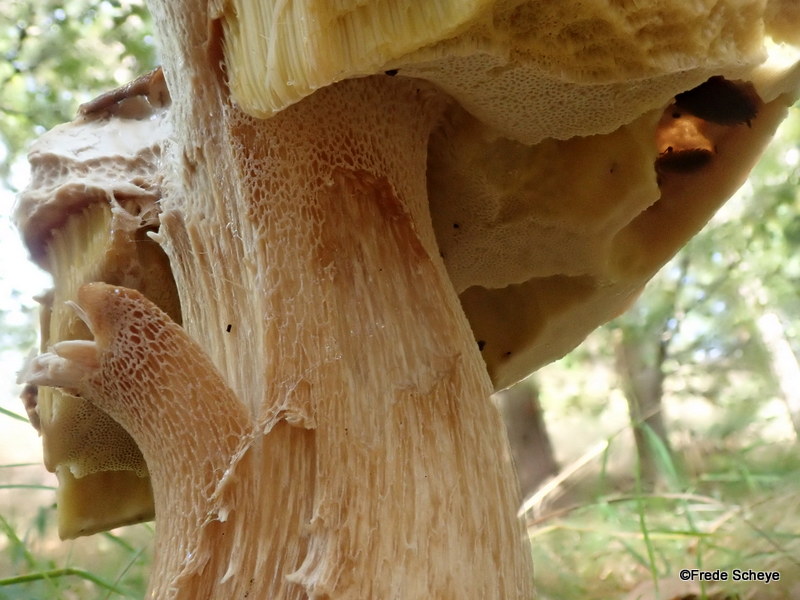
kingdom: Fungi
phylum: Basidiomycota
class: Agaricomycetes
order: Boletales
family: Boletaceae
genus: Boletus
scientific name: Boletus edulis
